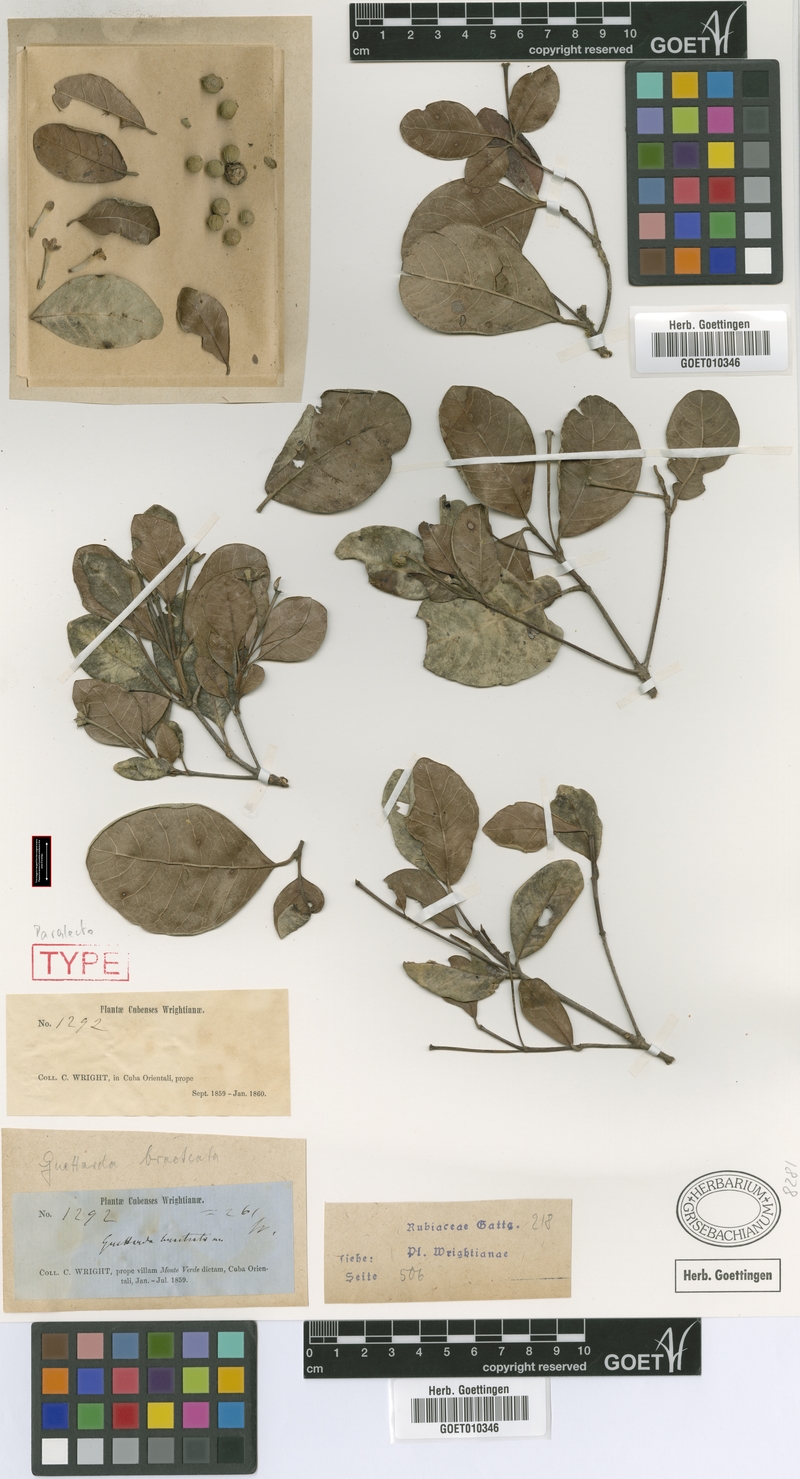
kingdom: Plantae
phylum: Tracheophyta
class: Magnoliopsida
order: Gentianales
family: Rubiaceae
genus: Guettarda
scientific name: Guettarda valenzuelana
